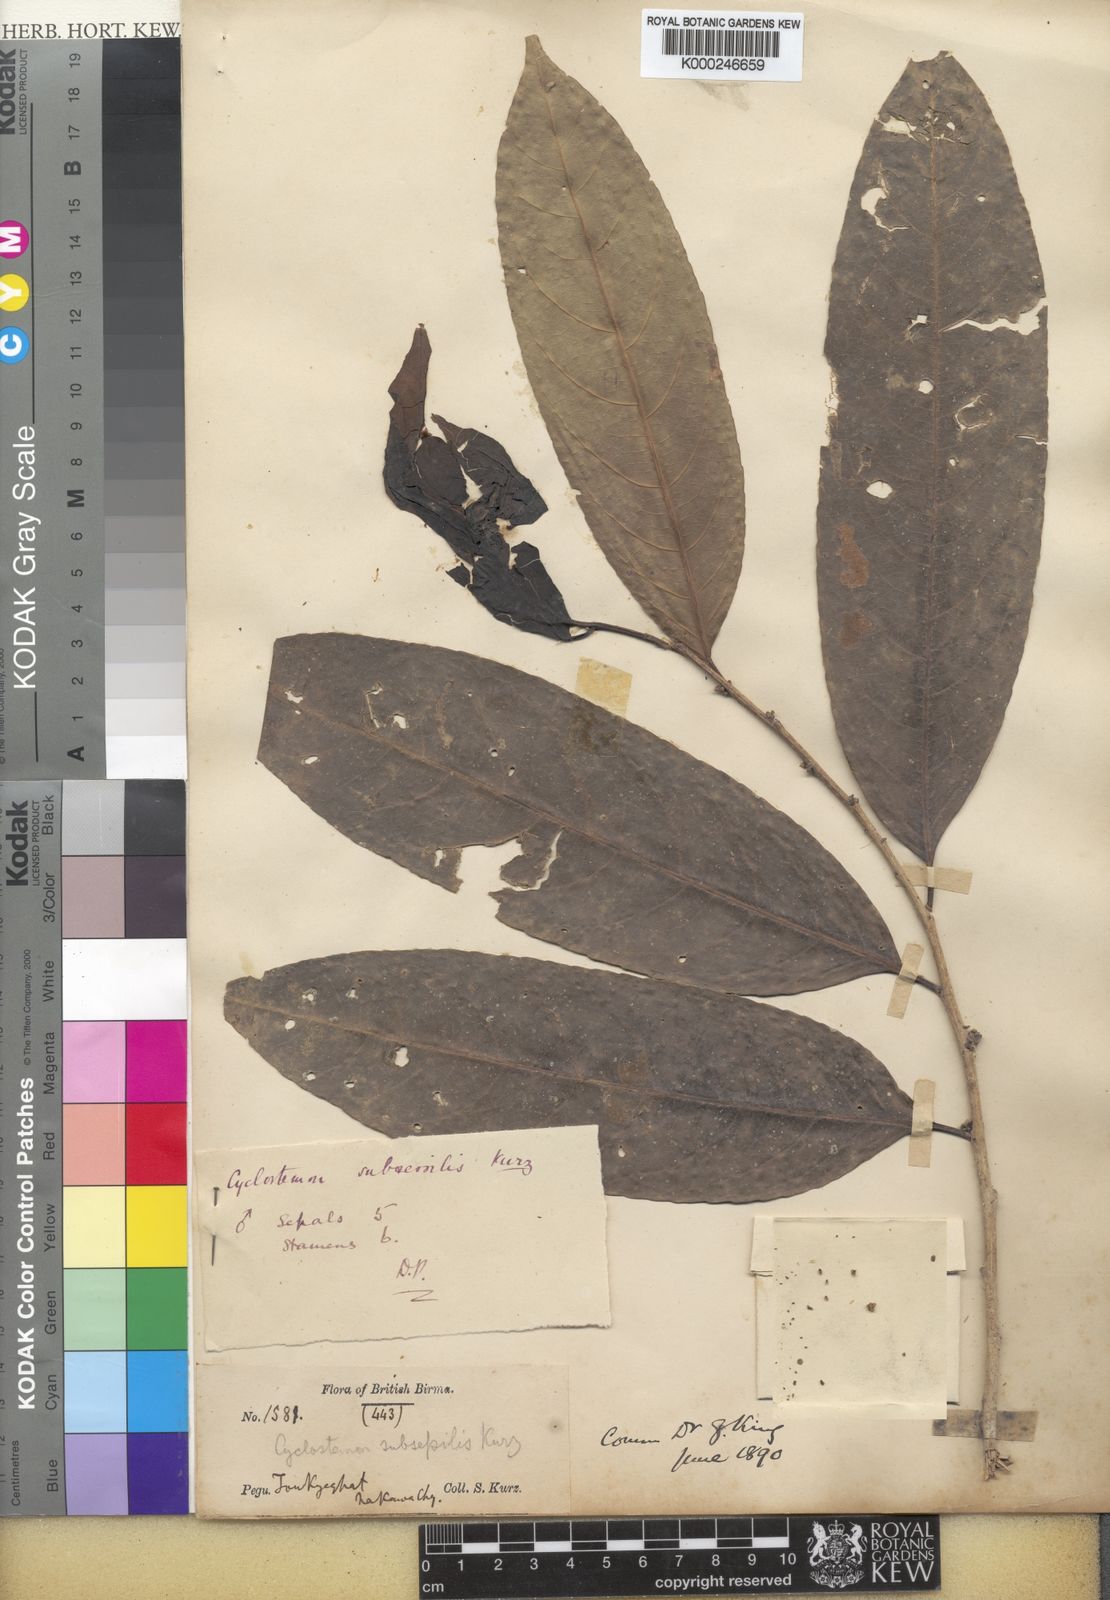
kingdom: Plantae
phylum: Tracheophyta
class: Magnoliopsida
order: Malpighiales
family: Putranjivaceae
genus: Drypetes
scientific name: Drypetes subsessilis
